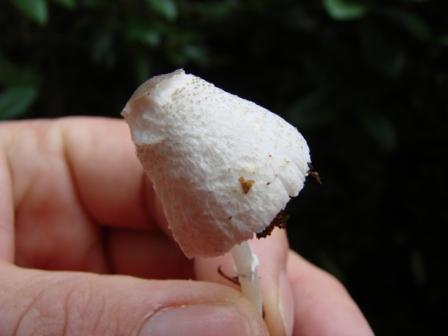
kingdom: Fungi
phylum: Basidiomycota
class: Agaricomycetes
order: Agaricales
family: Agaricaceae
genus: Leucocoprinus
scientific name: Leucocoprinus brebissonii
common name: gråsort silkehat
